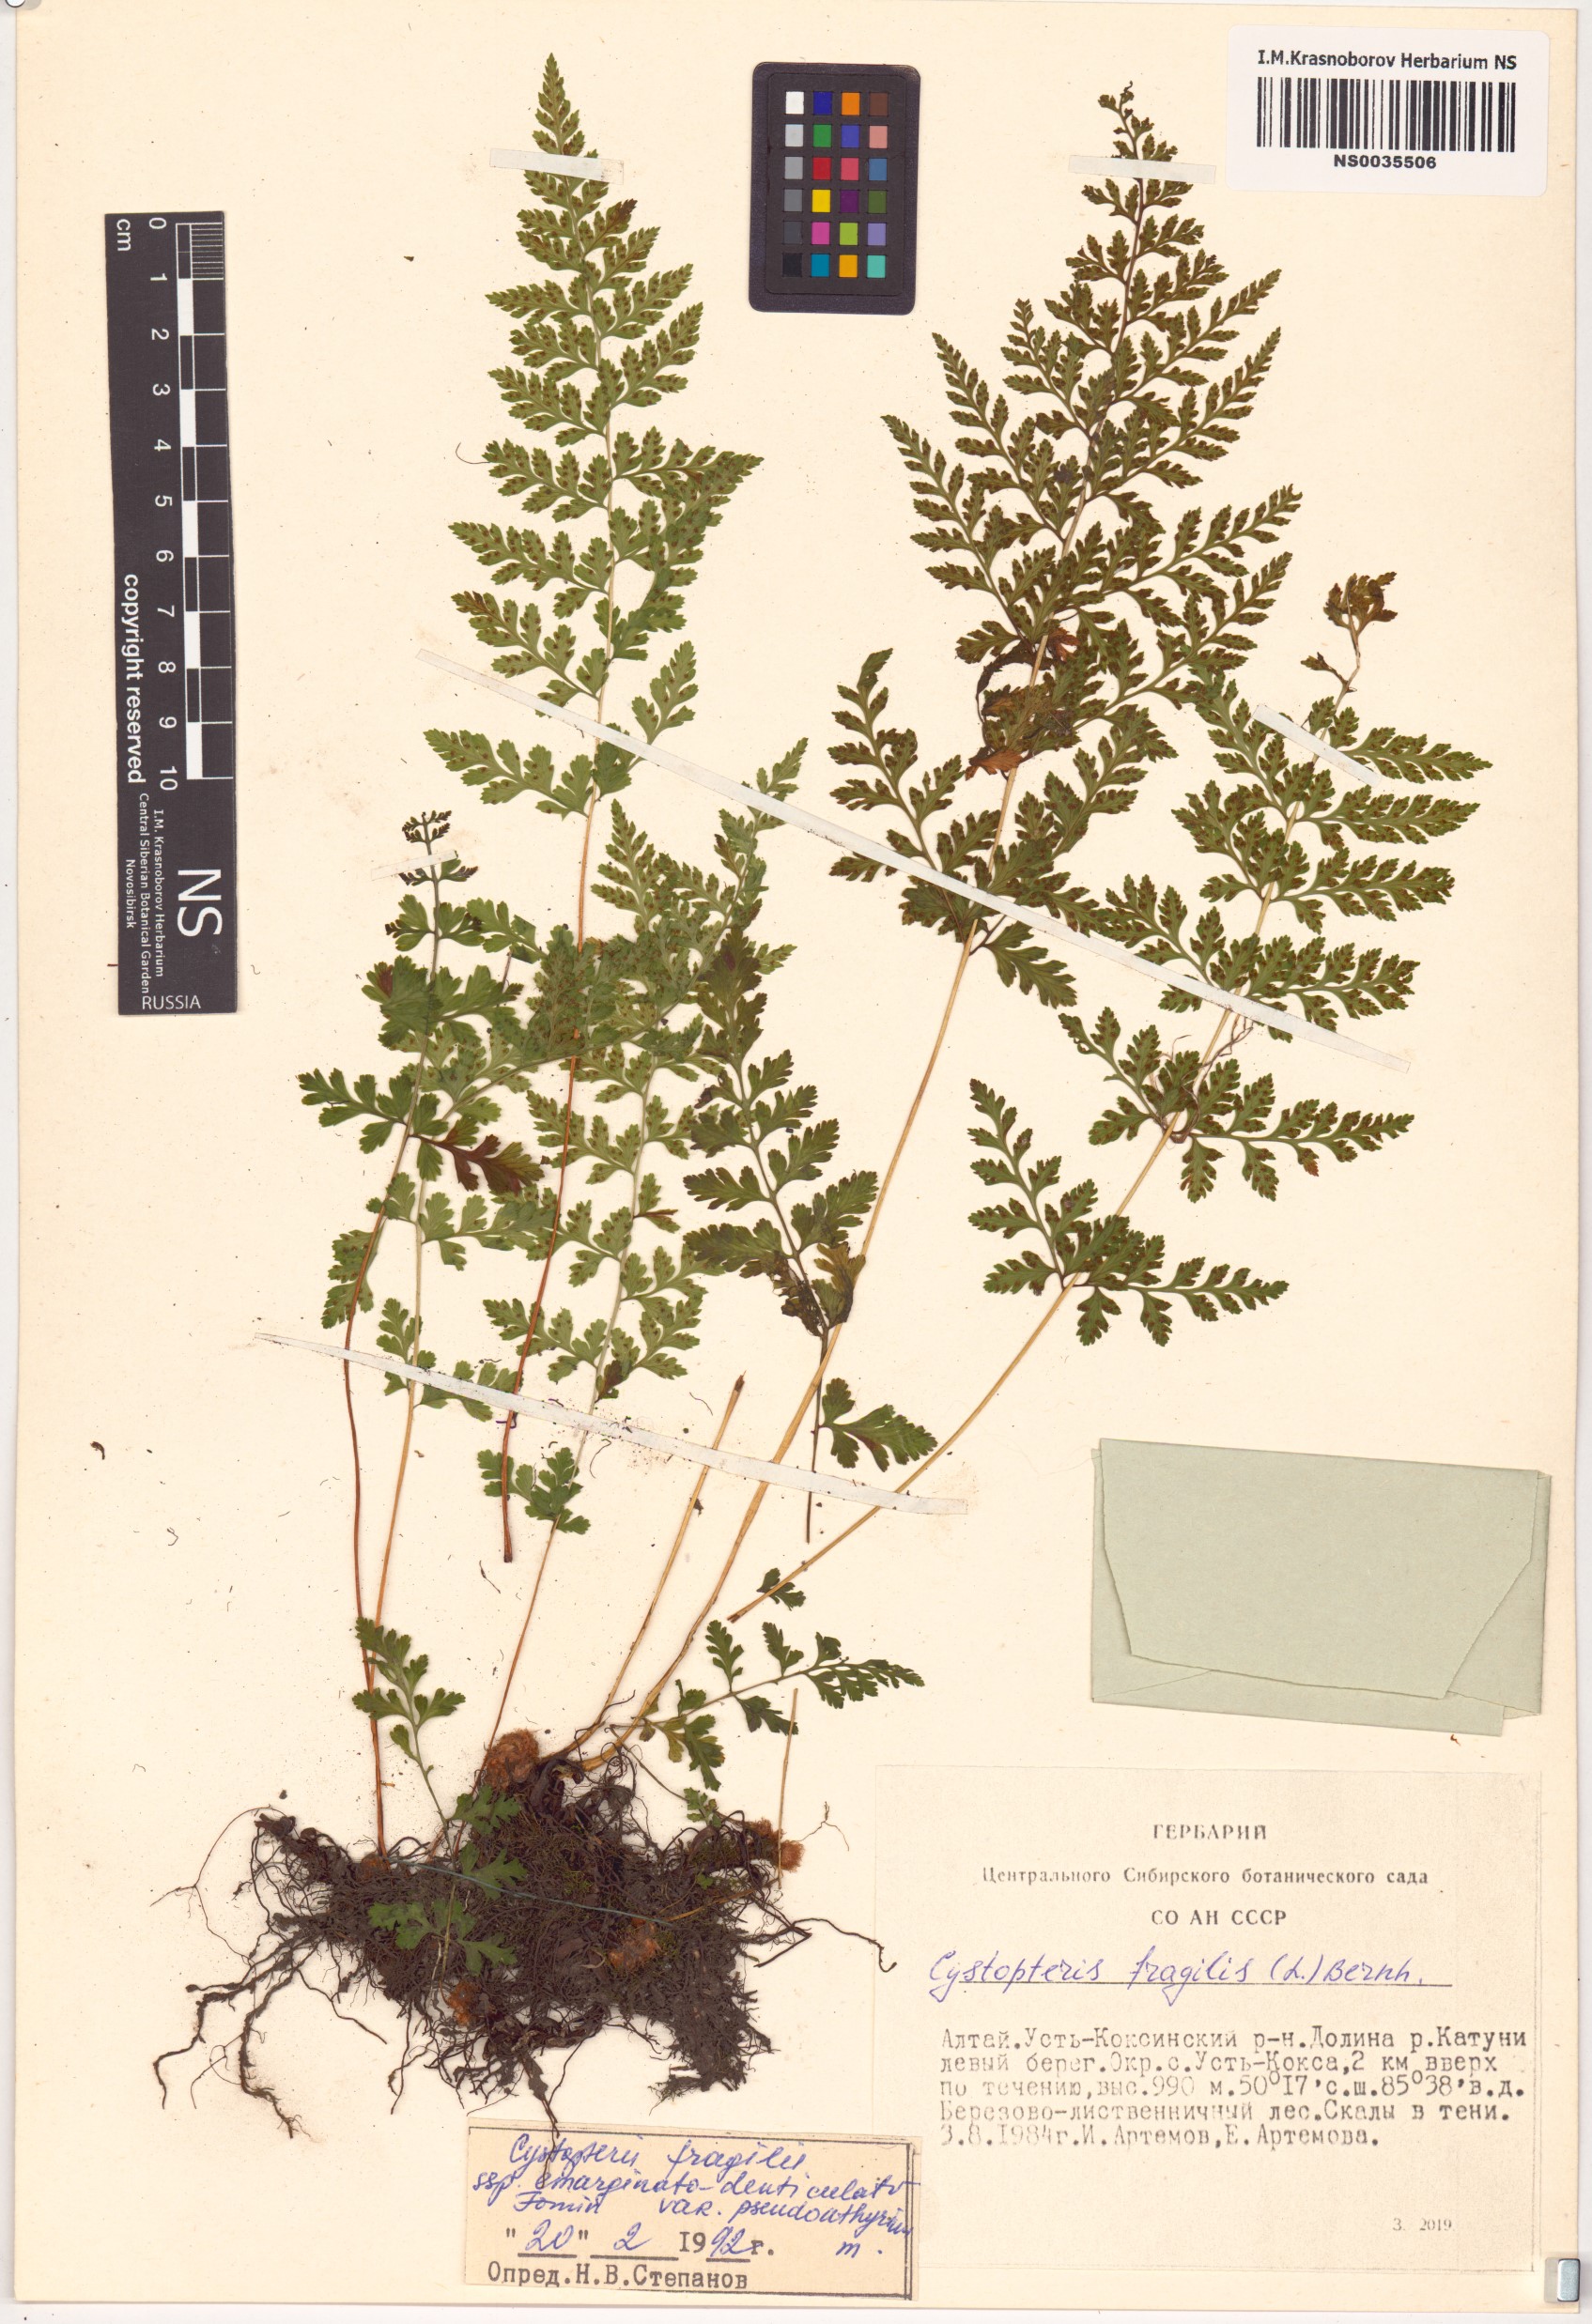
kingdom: Plantae
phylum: Tracheophyta
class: Polypodiopsida
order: Polypodiales
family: Cystopteridaceae
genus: Cystopteris
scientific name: Cystopteris diaphana
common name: Greenish bladder-fern
